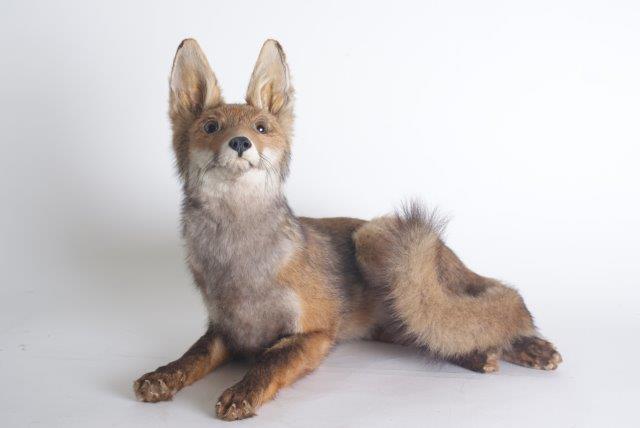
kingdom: Animalia
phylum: Chordata
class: Mammalia
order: Carnivora
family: Canidae
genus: Vulpes
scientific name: Vulpes vulpes
